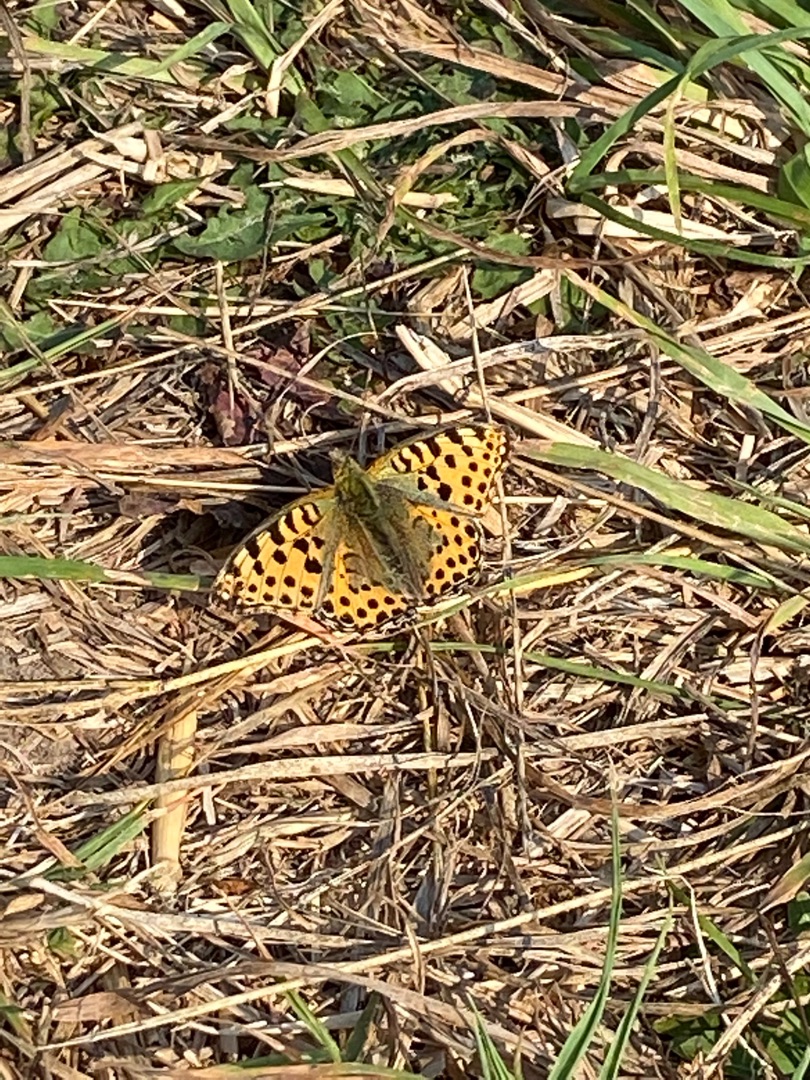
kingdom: Animalia
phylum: Arthropoda
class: Insecta
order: Lepidoptera
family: Nymphalidae
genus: Issoria
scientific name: Issoria lathonia
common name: Storplettet perlemorsommerfugl
